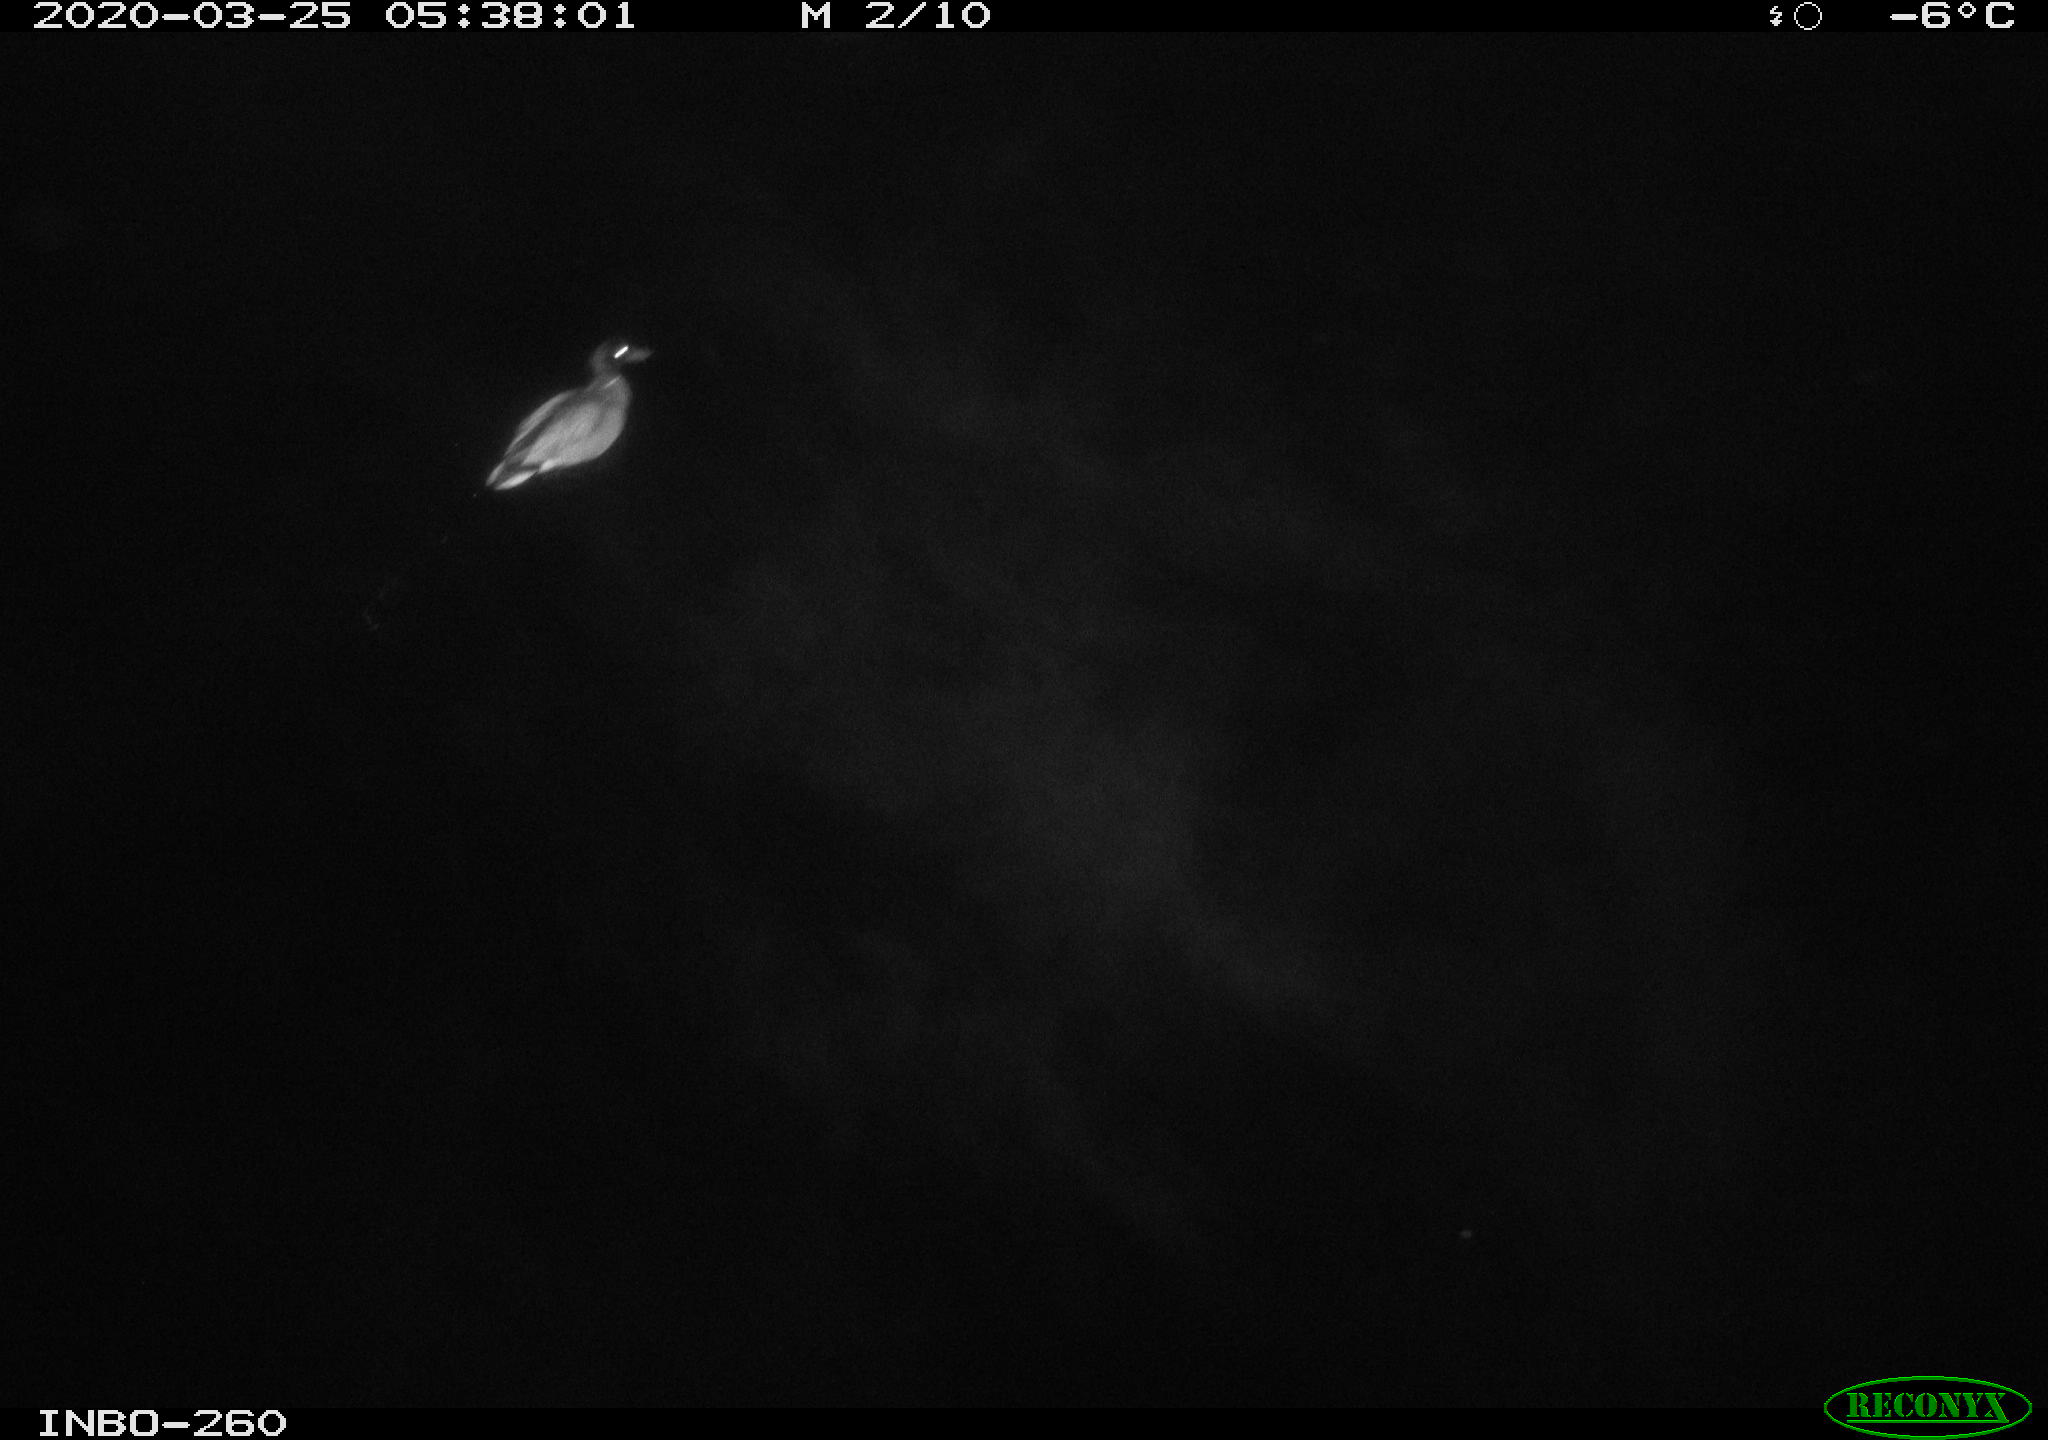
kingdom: Animalia
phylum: Chordata
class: Aves
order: Anseriformes
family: Anatidae
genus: Anas
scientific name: Anas platyrhynchos
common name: Mallard
